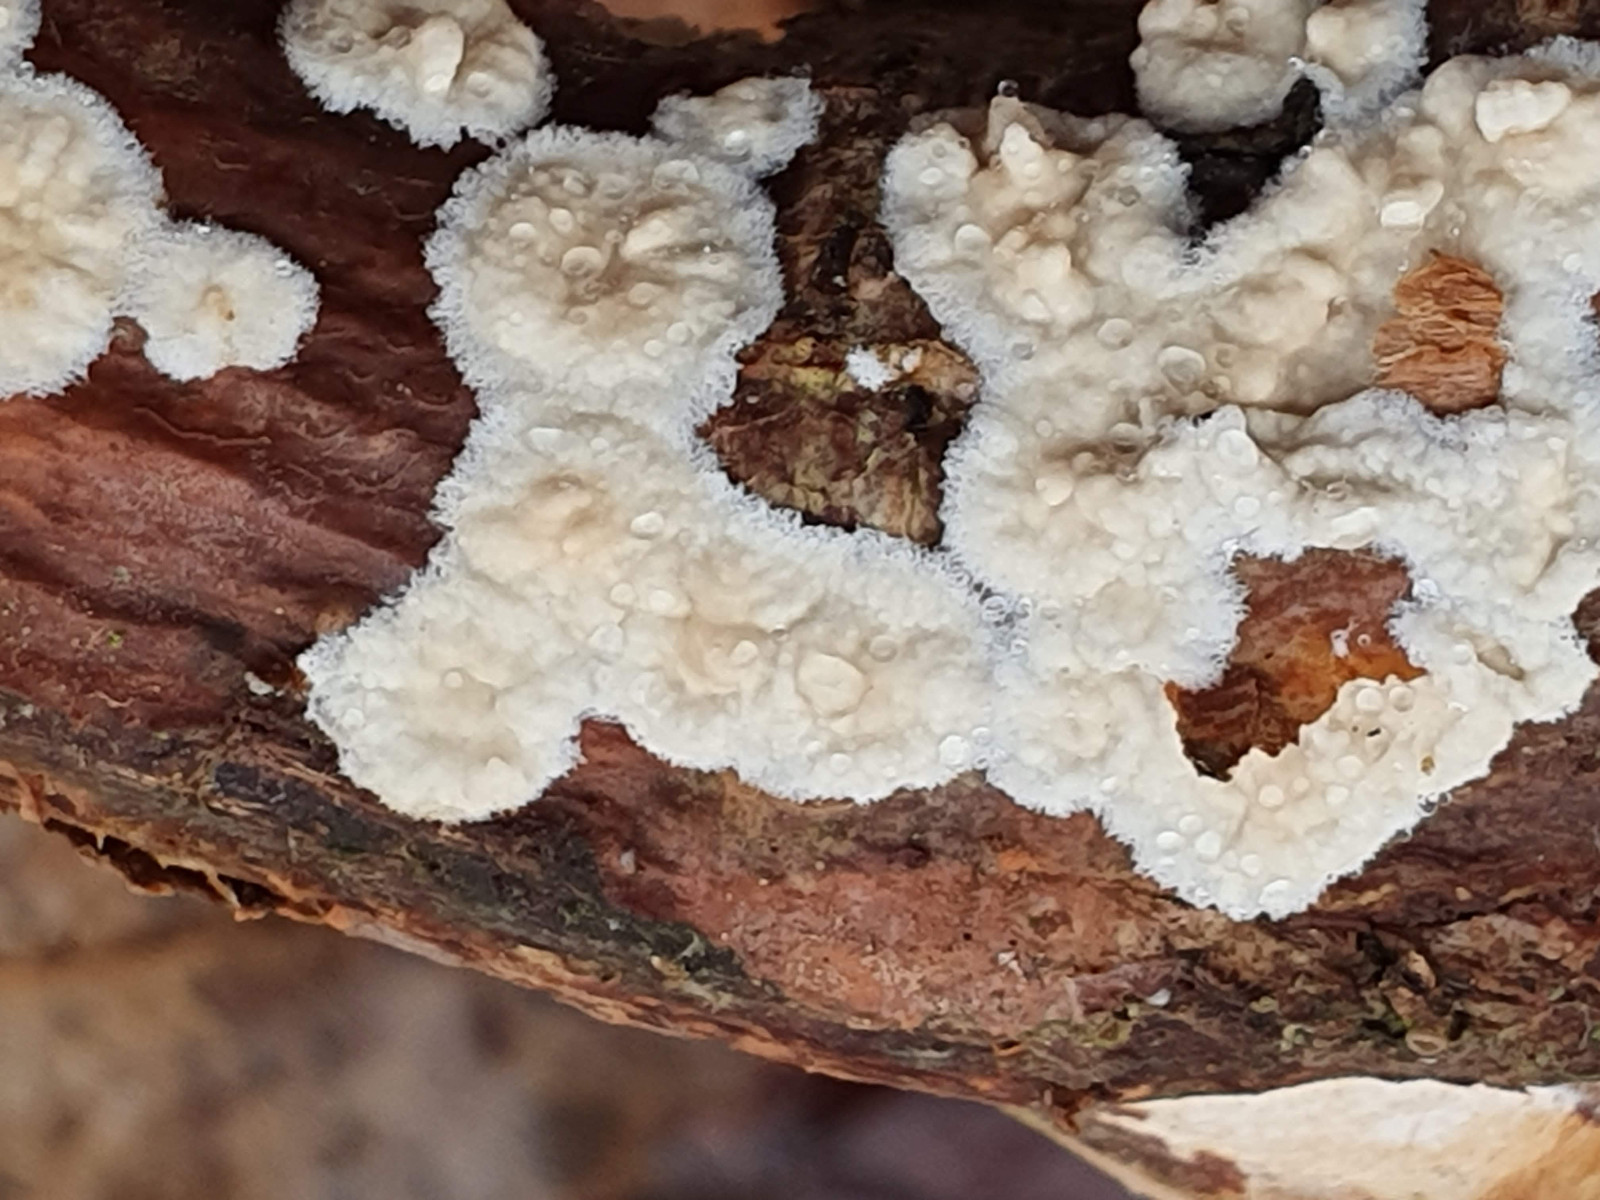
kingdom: Fungi
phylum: Basidiomycota
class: Agaricomycetes
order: Agaricales
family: Physalacriaceae
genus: Cylindrobasidium
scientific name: Cylindrobasidium evolvens
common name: sprækkehinde
